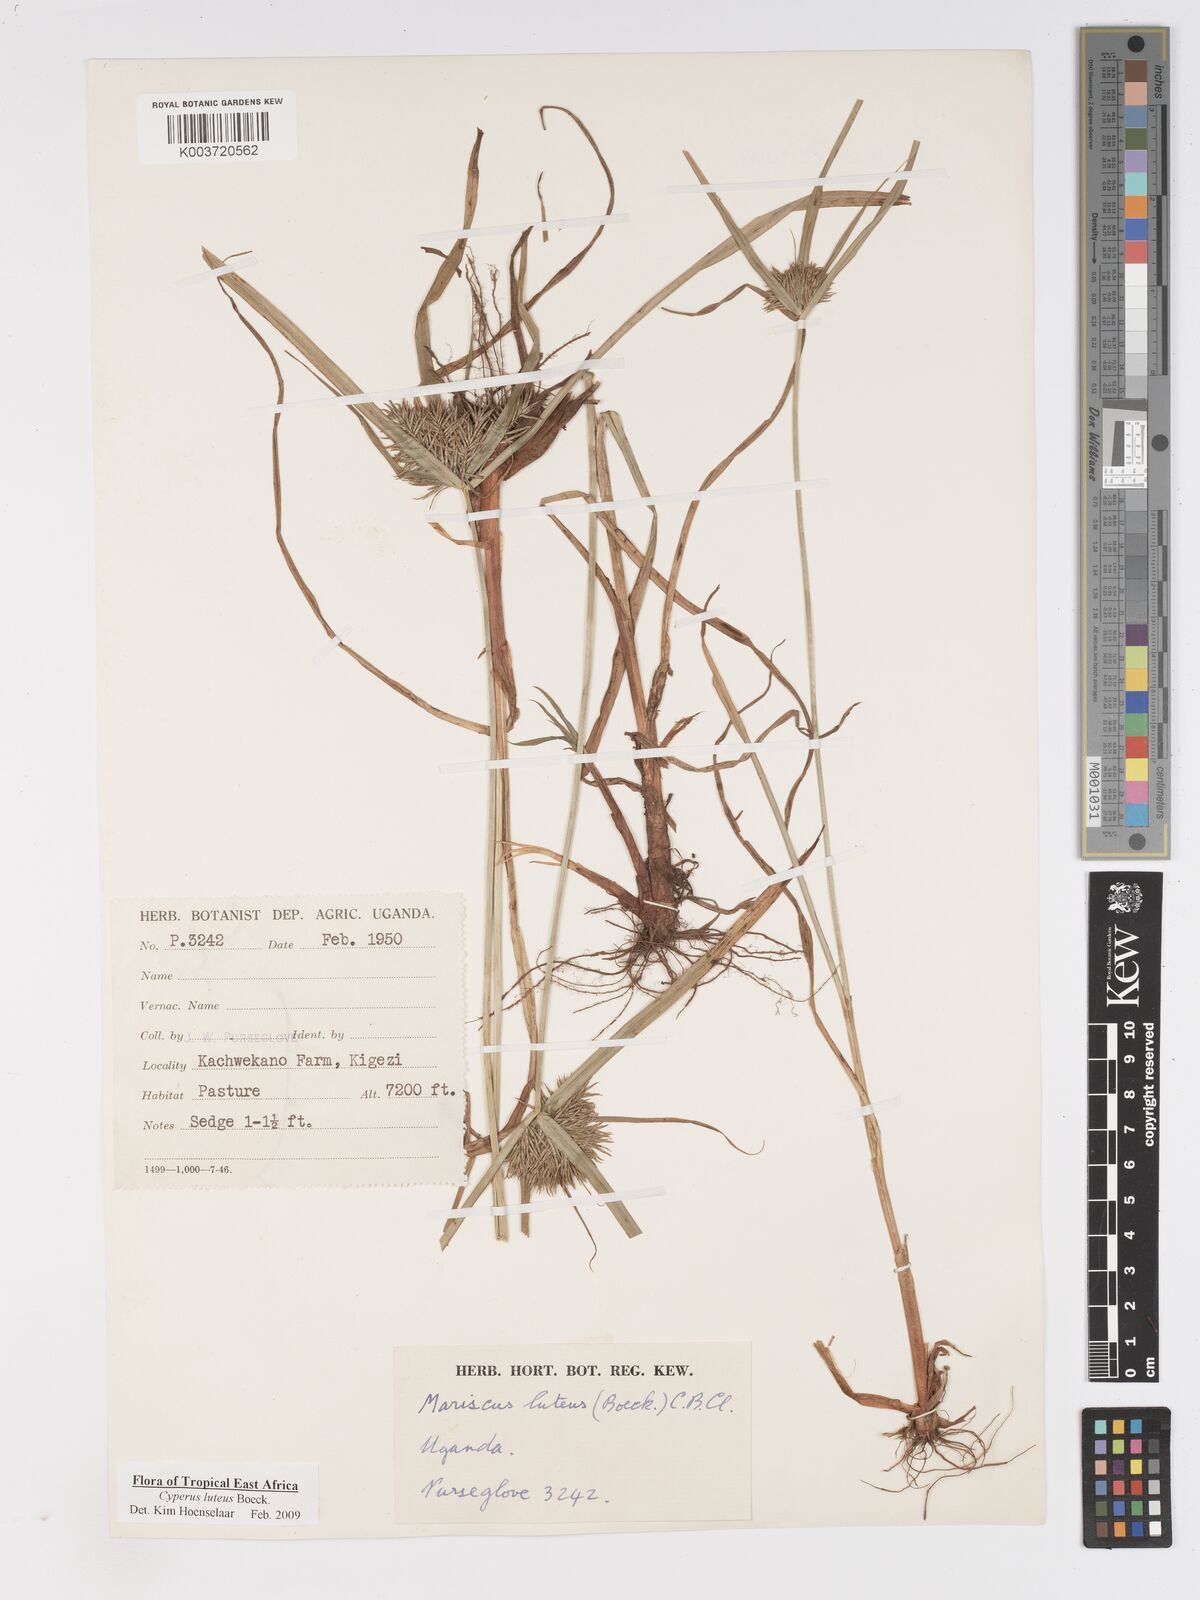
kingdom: Plantae
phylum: Tracheophyta
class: Liliopsida
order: Poales
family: Cyperaceae
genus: Cyperus
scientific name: Cyperus luteus
